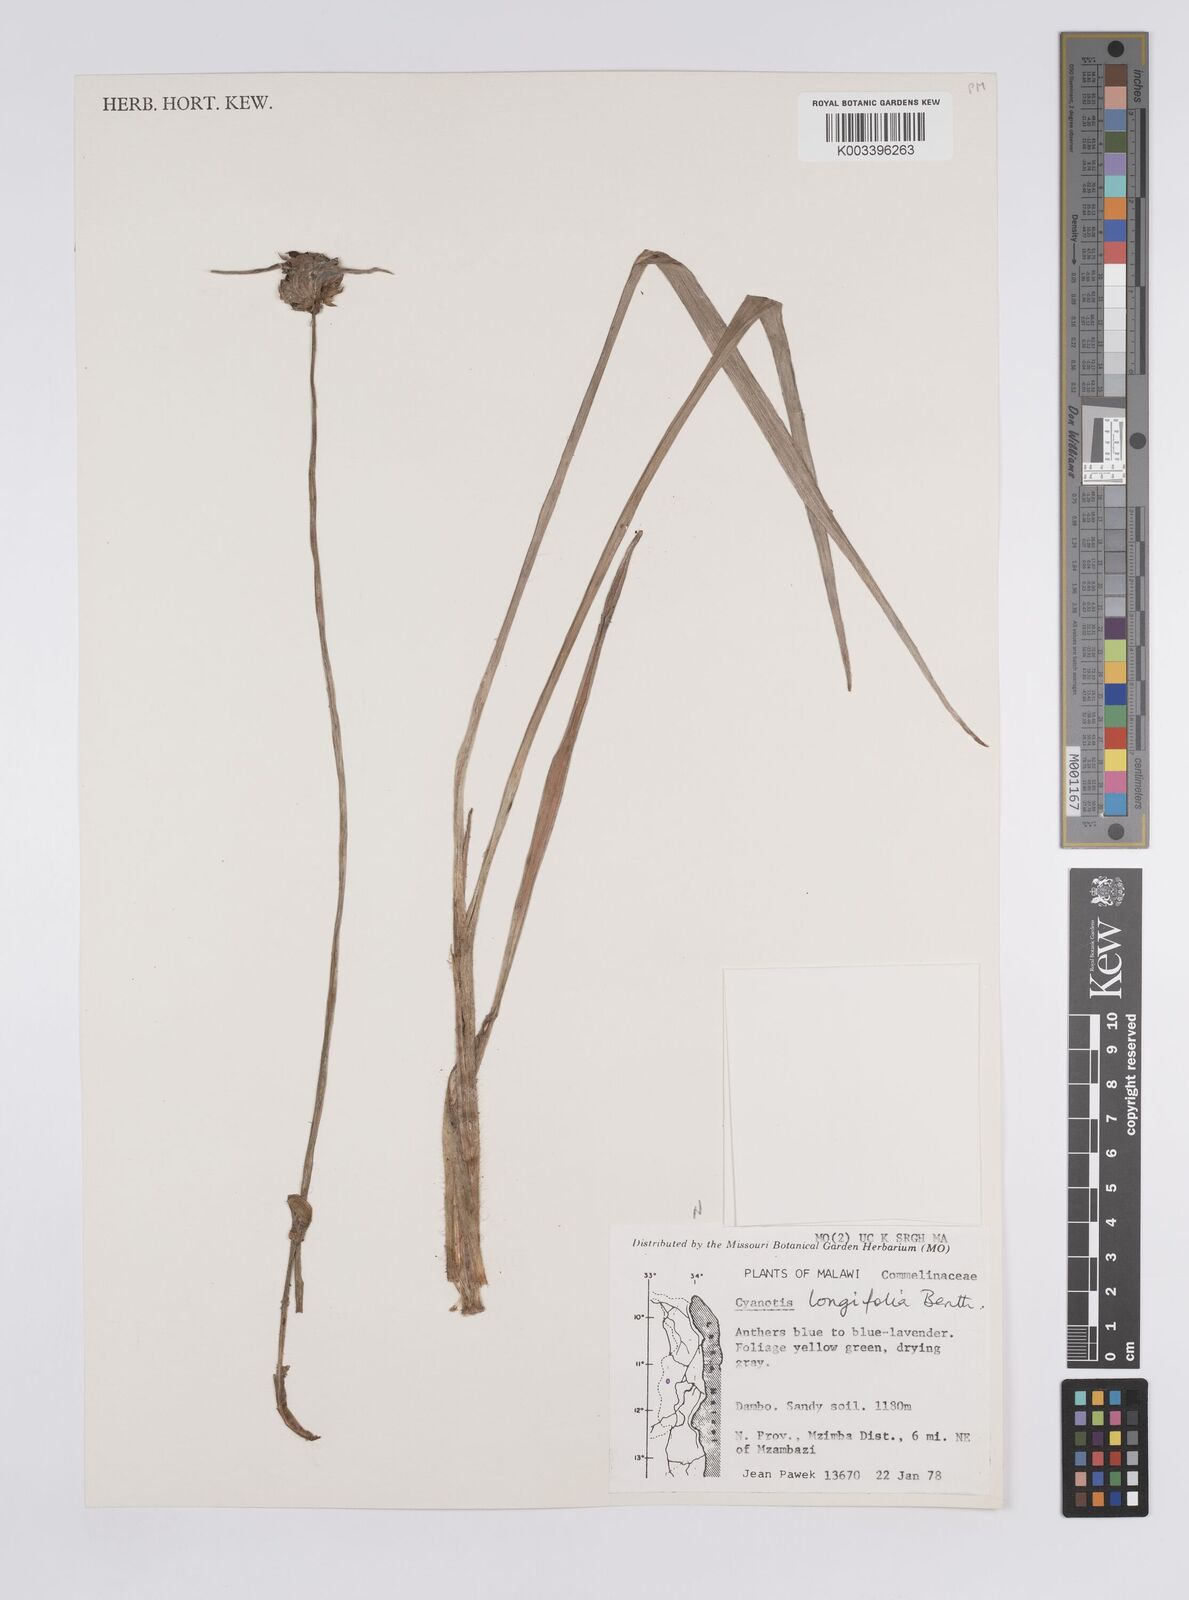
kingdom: Plantae
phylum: Tracheophyta
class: Liliopsida
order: Commelinales
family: Commelinaceae
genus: Cyanotis
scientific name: Cyanotis longifolia
